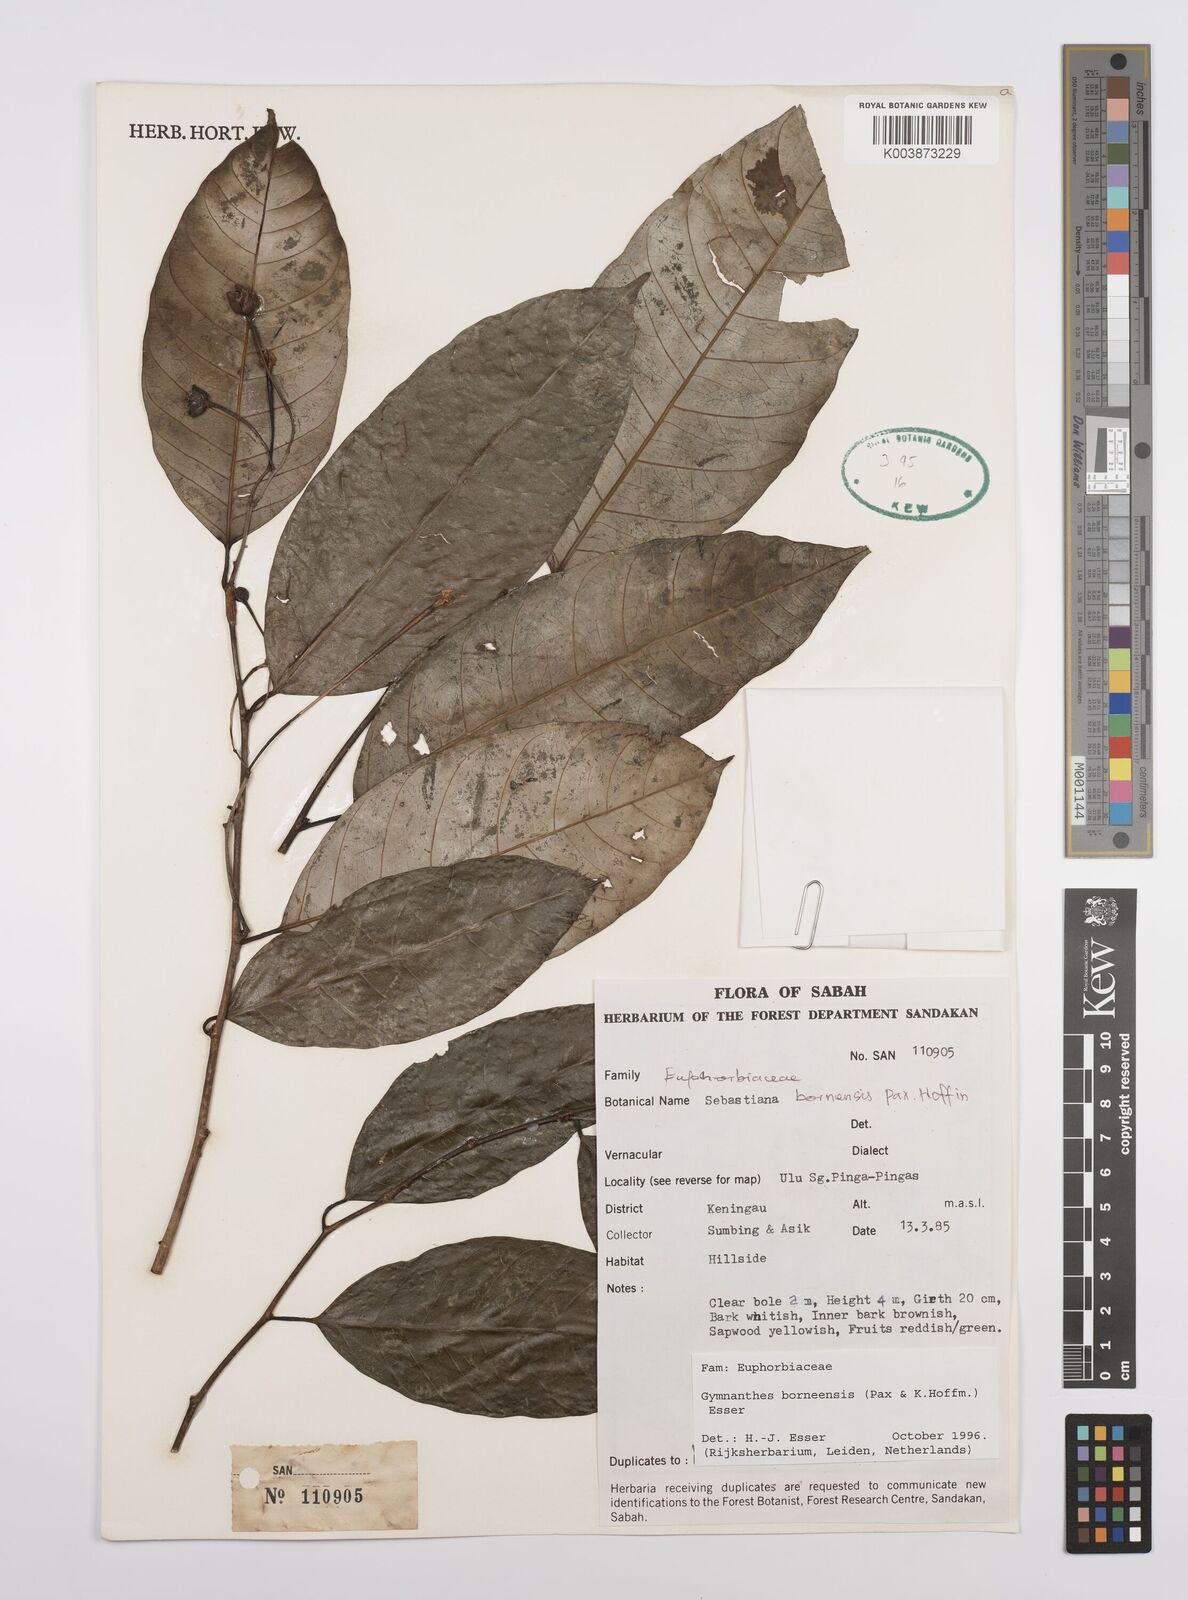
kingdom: Plantae
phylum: Tracheophyta
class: Magnoliopsida
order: Malpighiales
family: Euphorbiaceae
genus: Gymnanthes
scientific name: Gymnanthes borneensis
